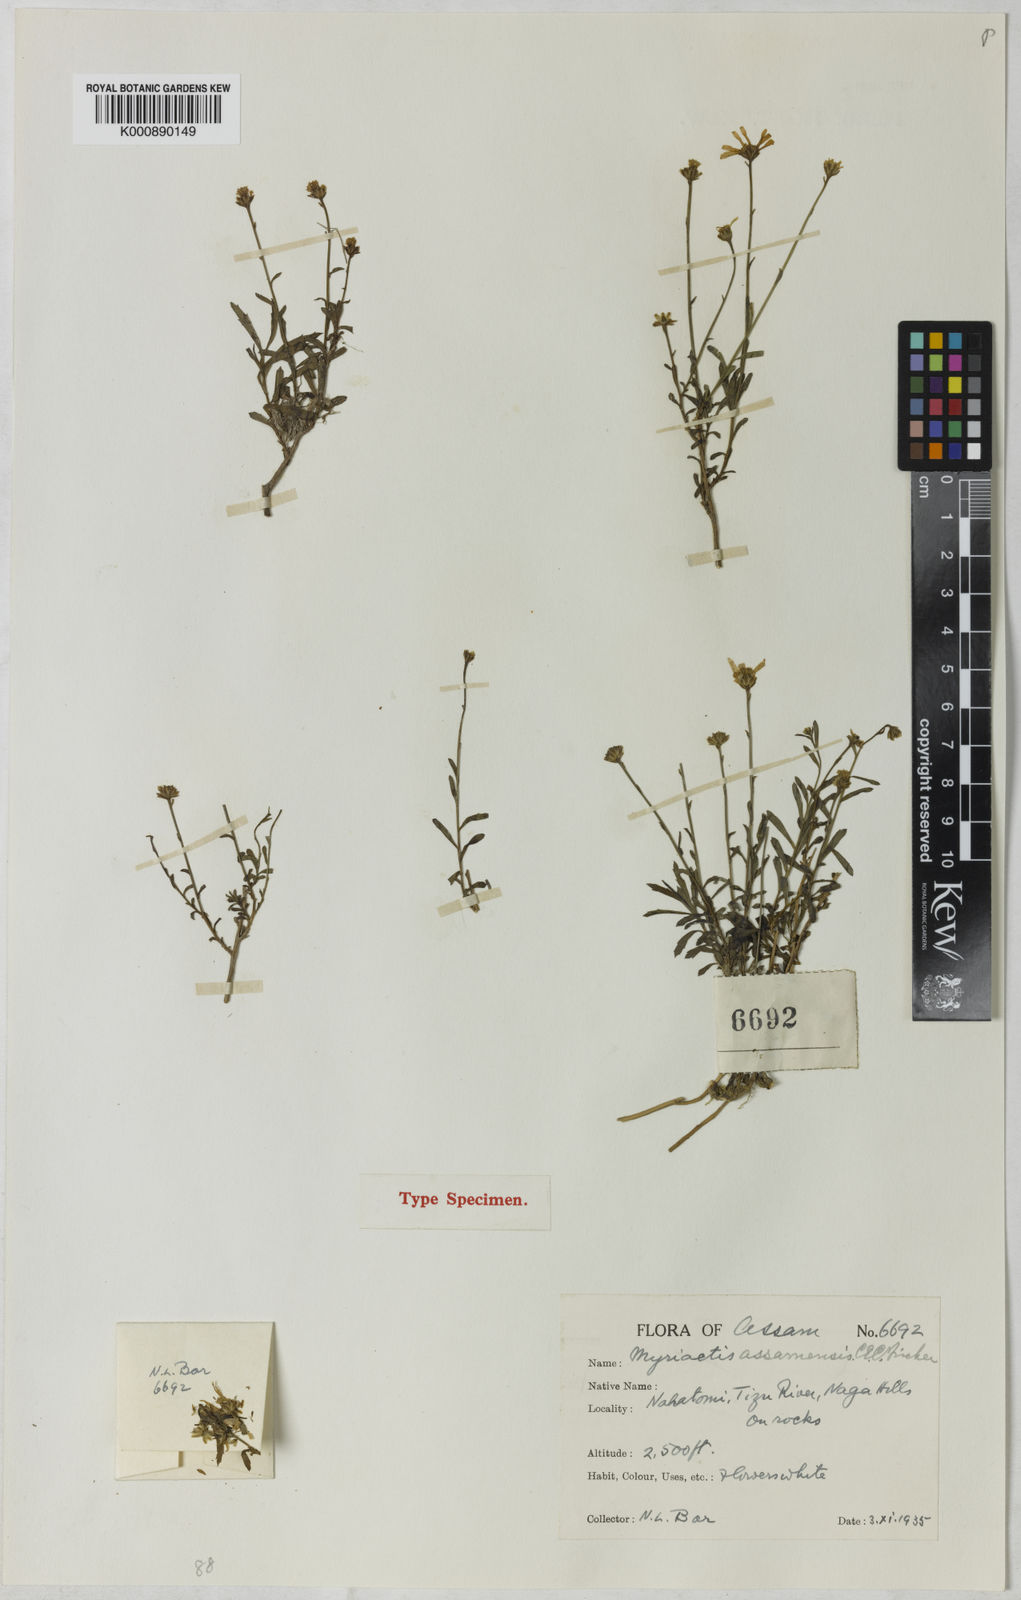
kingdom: Plantae
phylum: Tracheophyta
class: Magnoliopsida
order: Asterales
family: Asteraceae
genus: Myriactis
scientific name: Myriactis assamensis
